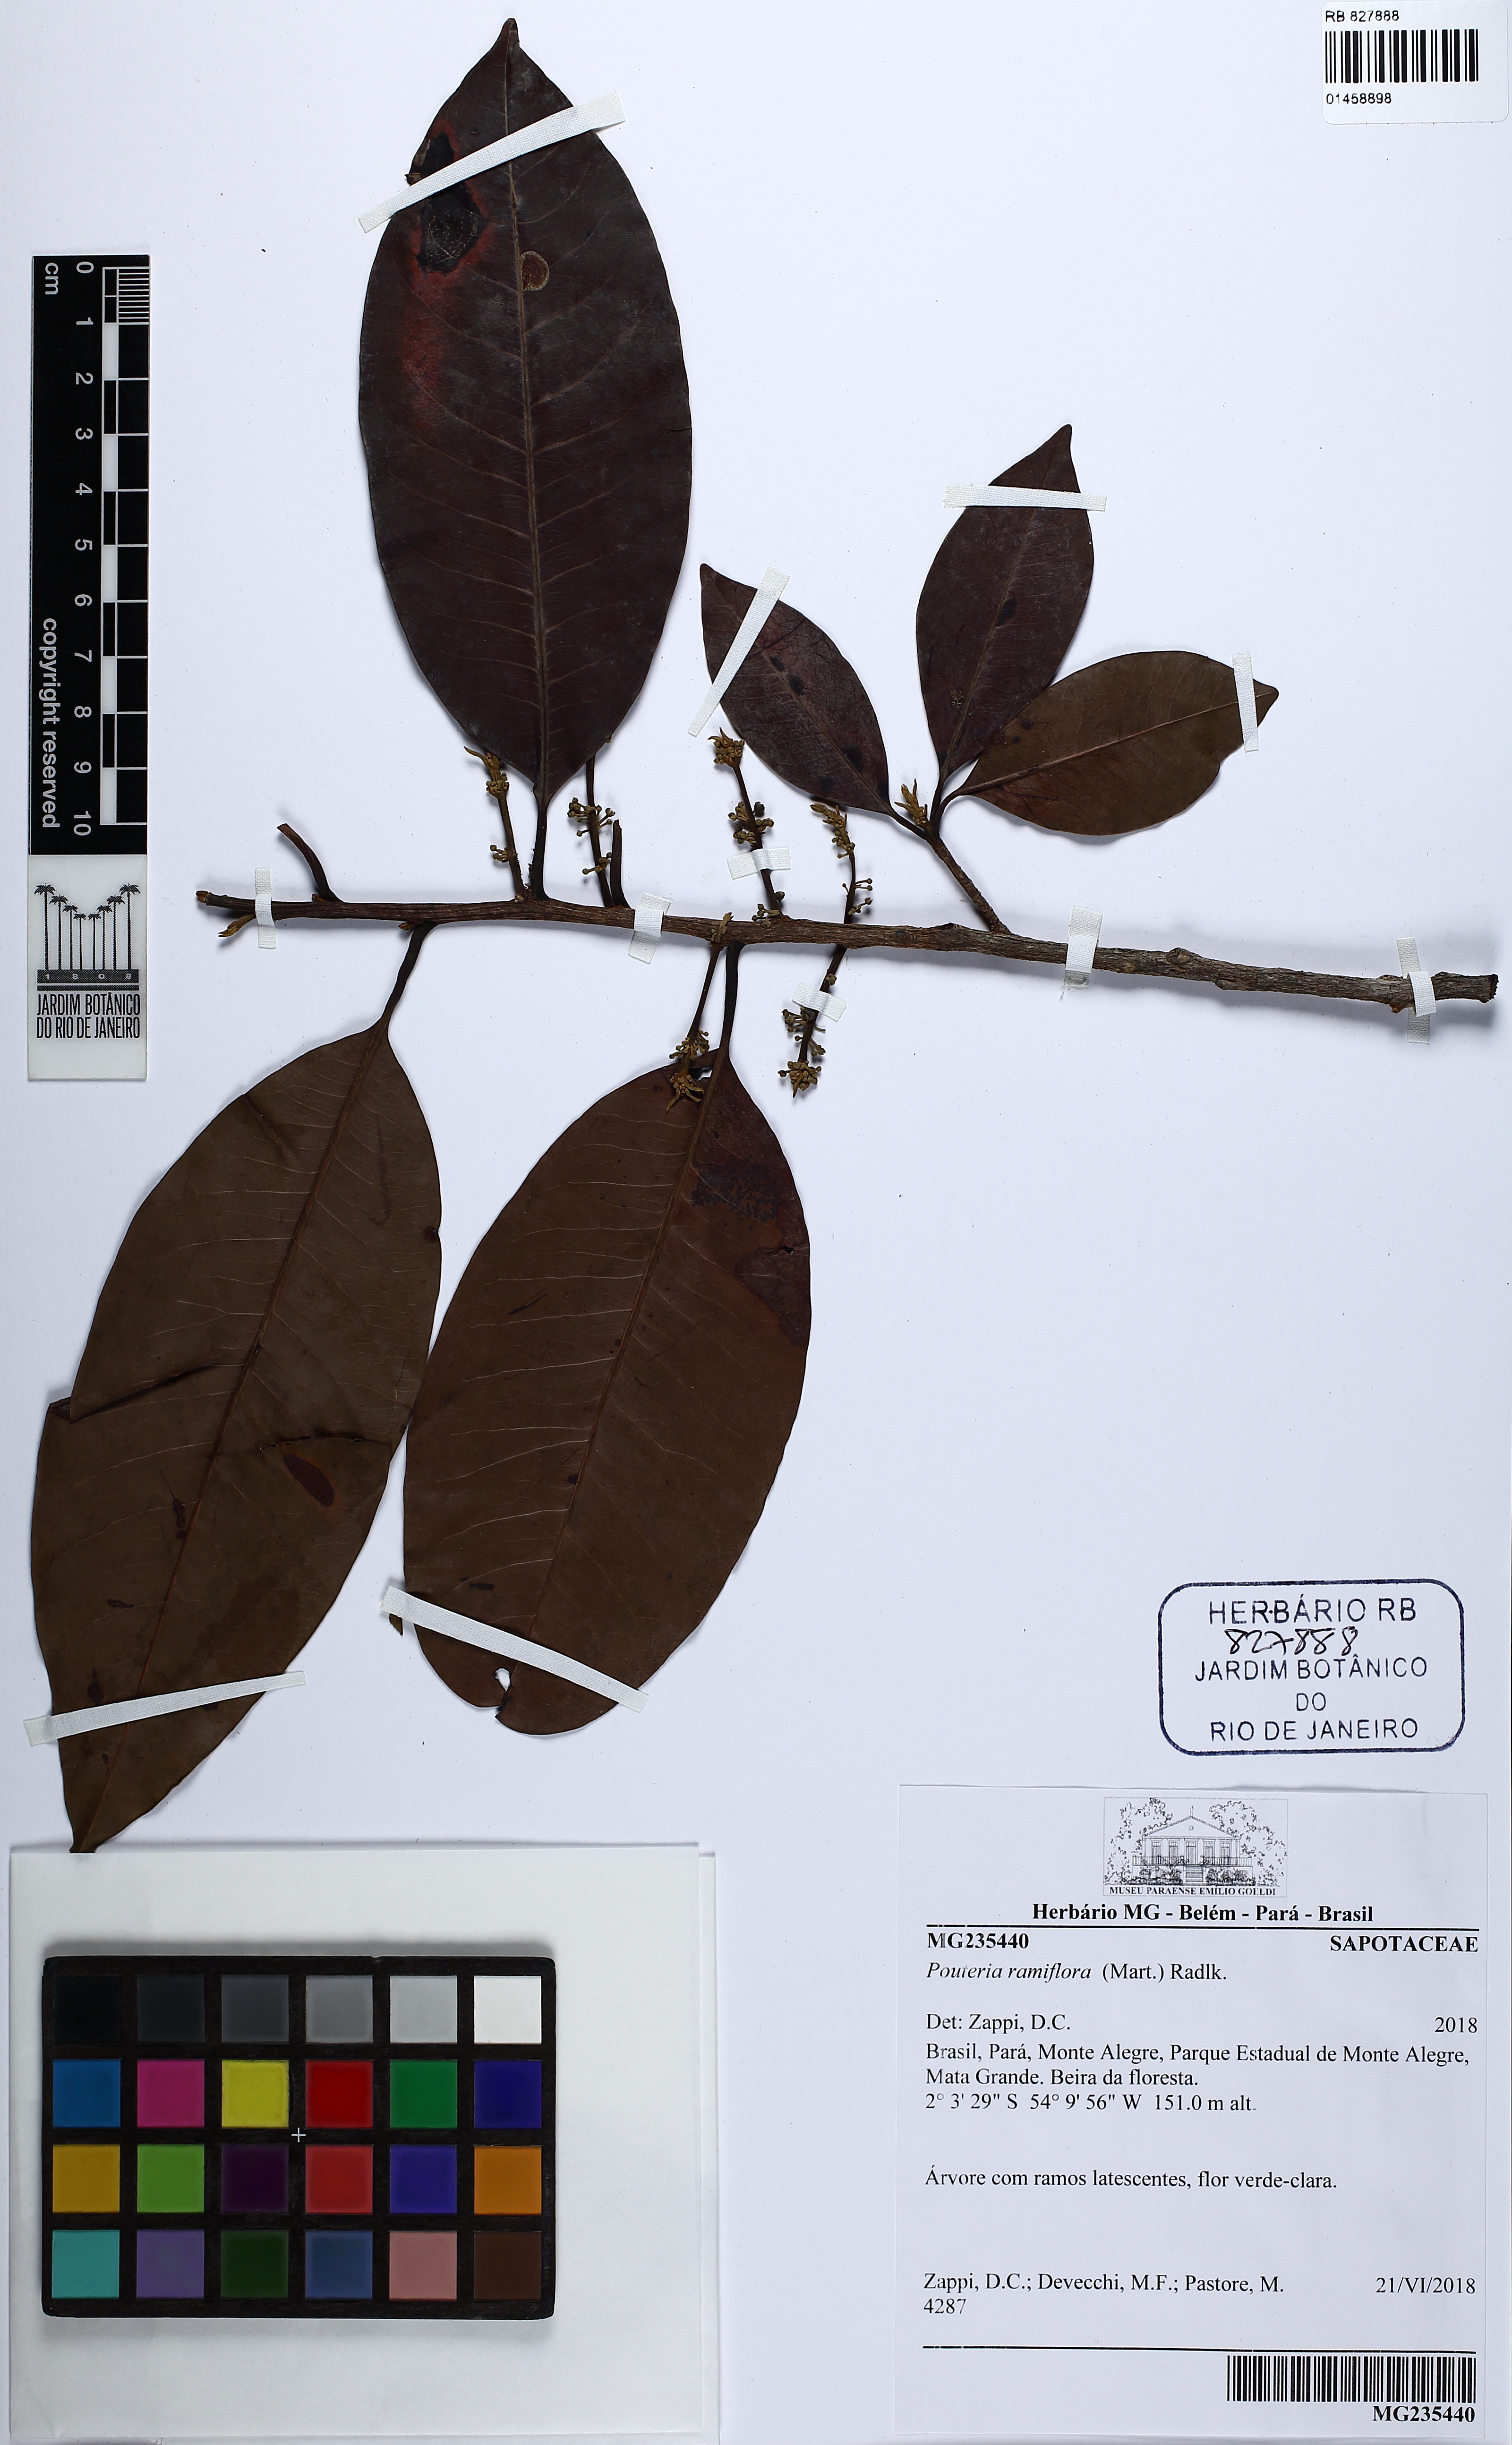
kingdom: Plantae
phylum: Tracheophyta
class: Magnoliopsida
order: Ericales
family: Sapotaceae
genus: Pouteria
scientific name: Pouteria ramiflora
